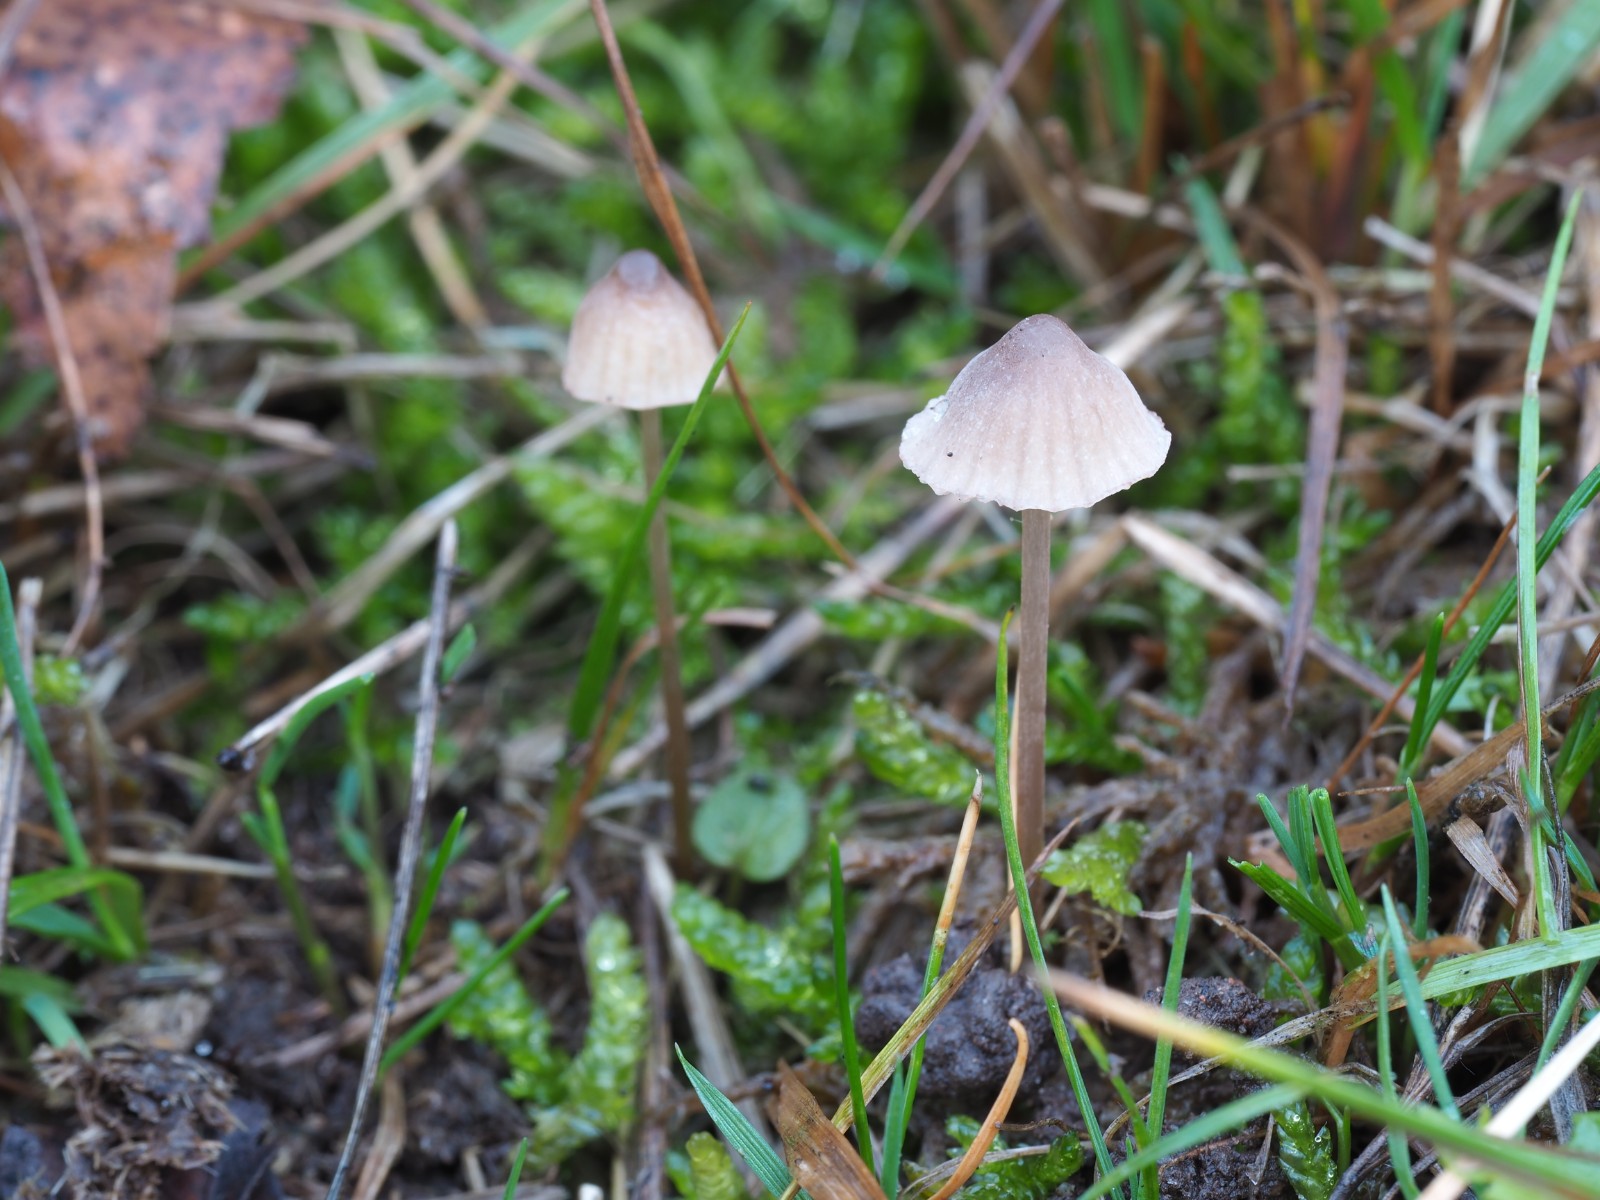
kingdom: Fungi
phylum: Basidiomycota
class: Agaricomycetes
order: Agaricales
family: Mycenaceae
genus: Mycena
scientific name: Mycena olivaceomarginata
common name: brunægget huesvamp
